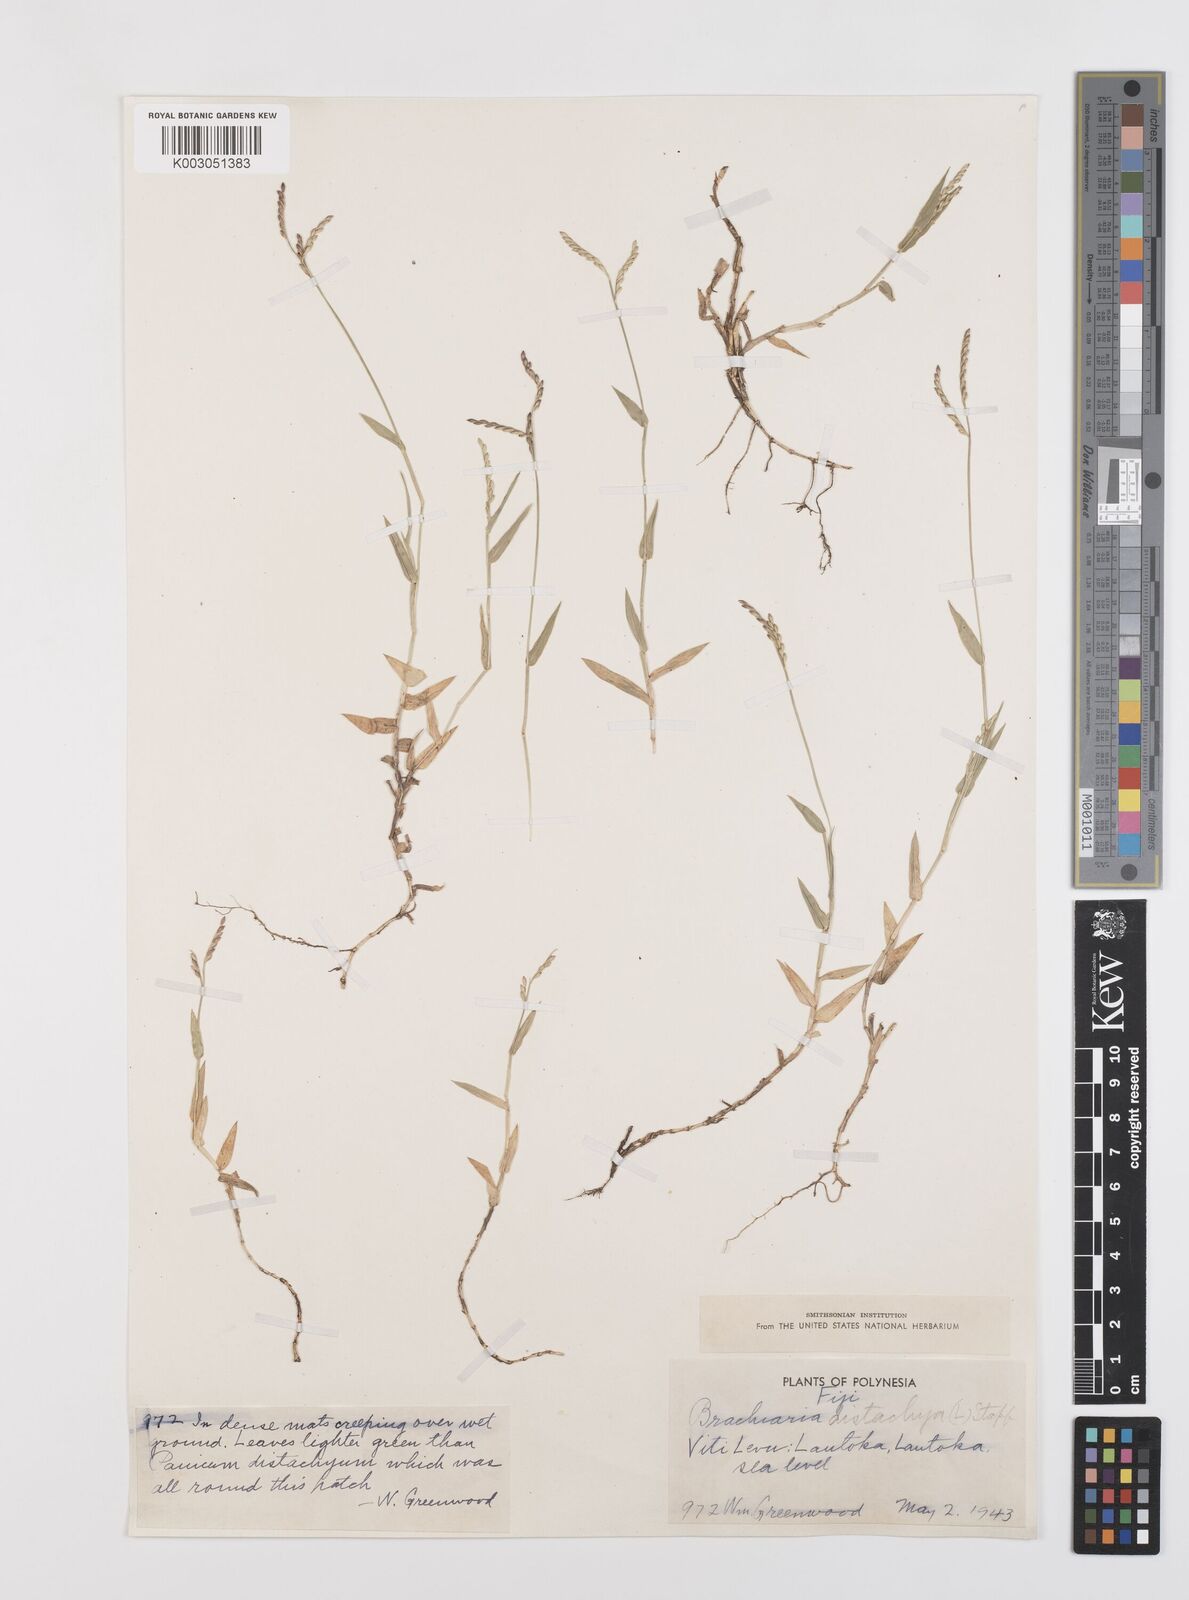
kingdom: Plantae
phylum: Tracheophyta
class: Liliopsida
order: Poales
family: Poaceae
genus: Urochloa
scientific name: Urochloa distachyos
